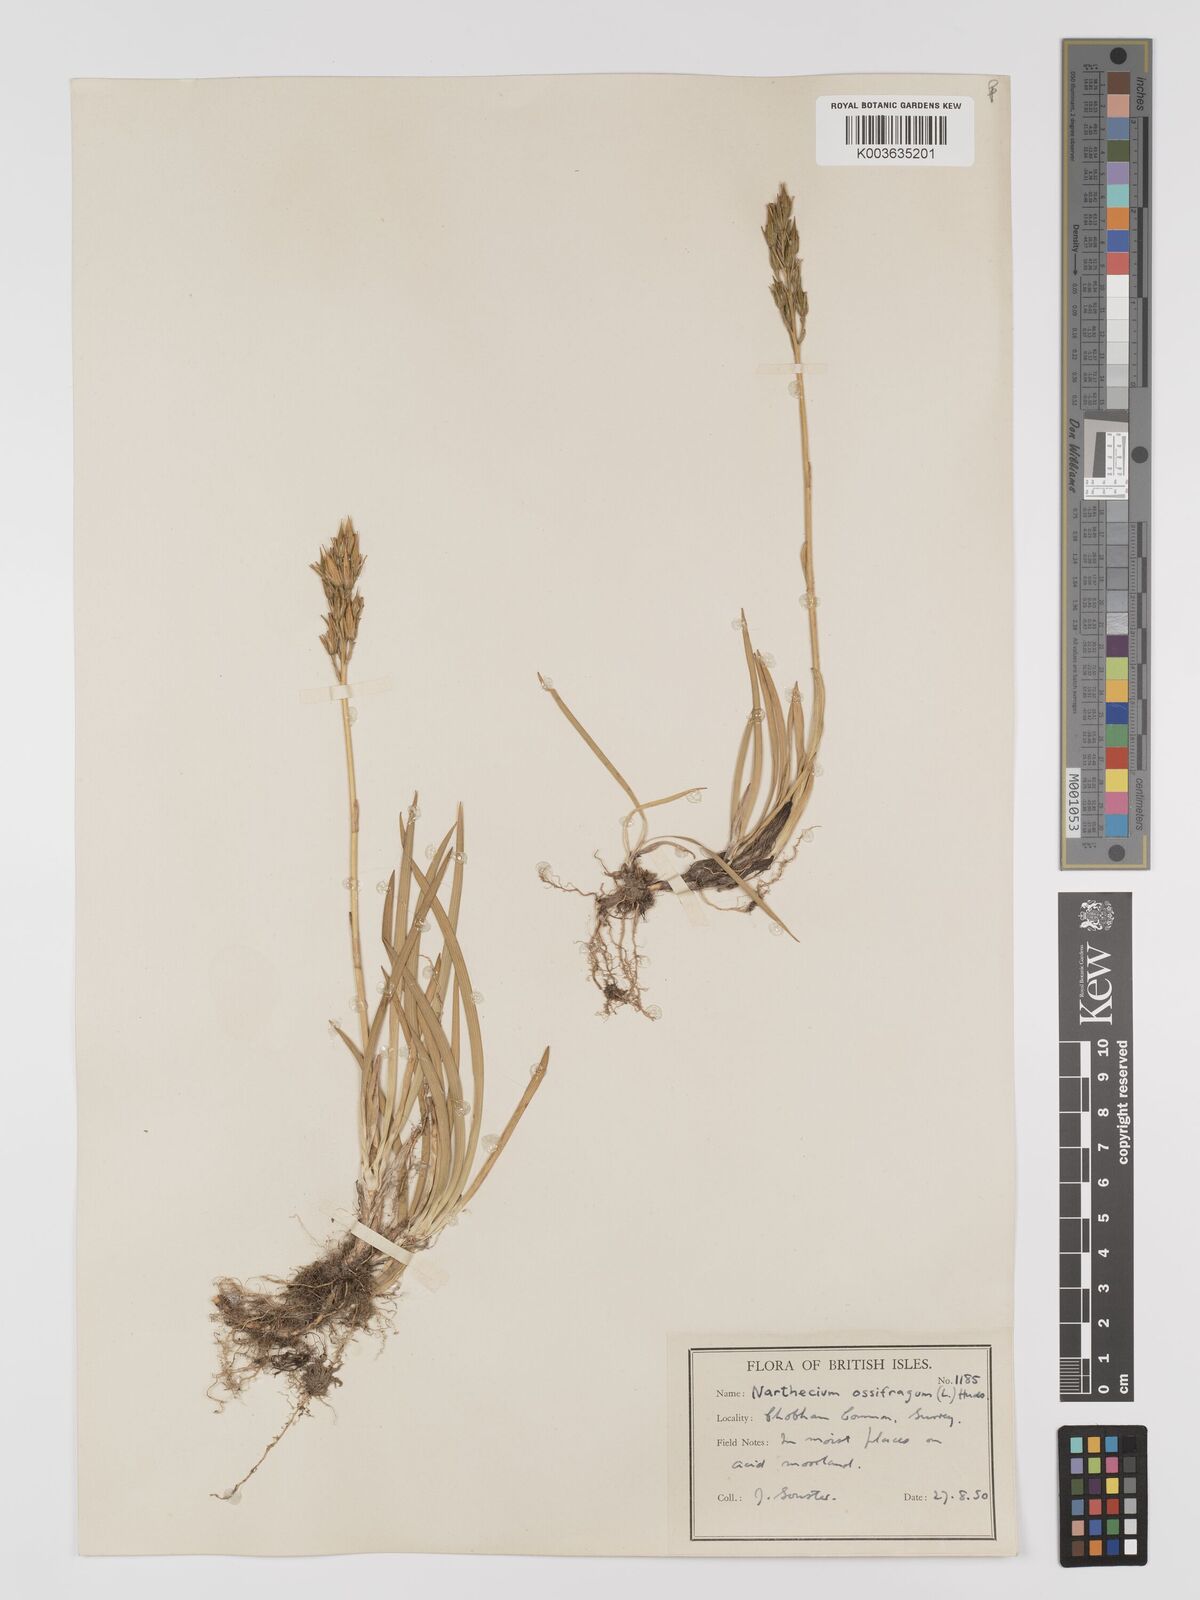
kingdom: Plantae
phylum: Tracheophyta
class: Liliopsida
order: Dioscoreales
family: Nartheciaceae
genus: Narthecium
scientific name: Narthecium
